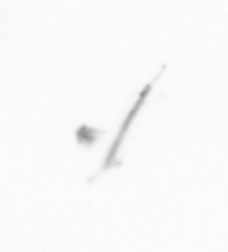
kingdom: Chromista
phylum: Ochrophyta
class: Bacillariophyceae
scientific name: Bacillariophyceae
